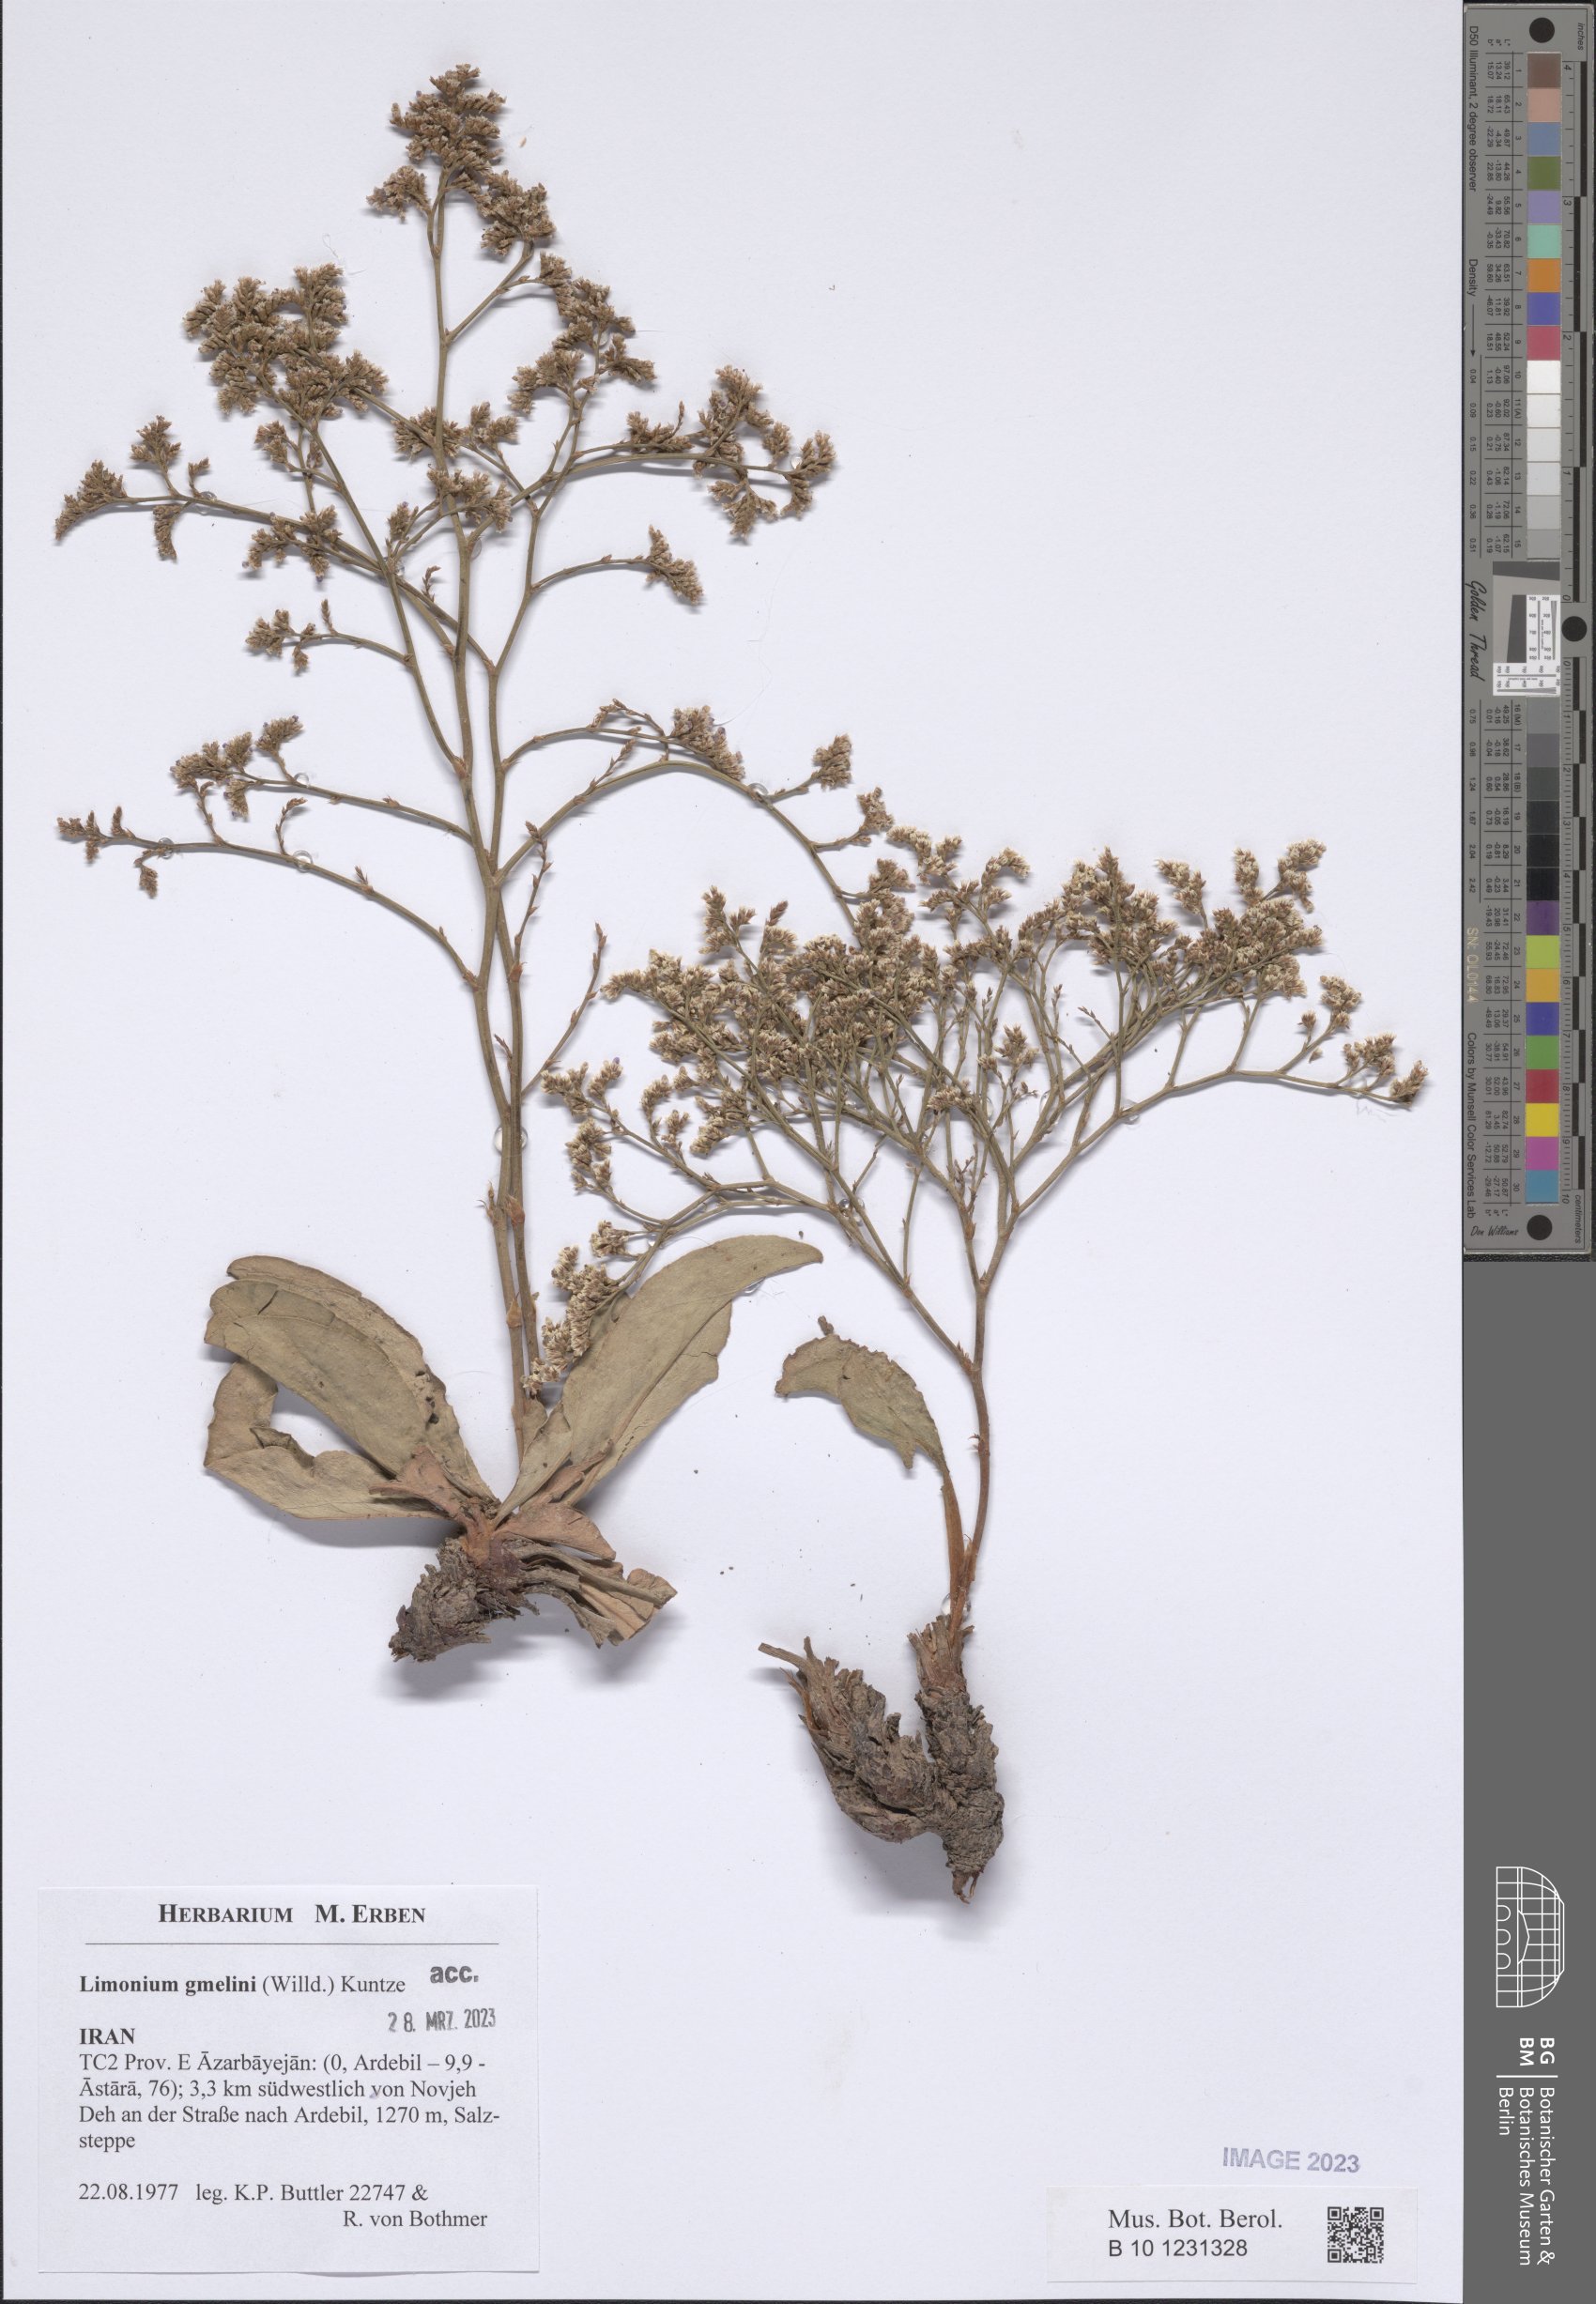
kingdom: Plantae
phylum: Tracheophyta
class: Magnoliopsida
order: Caryophyllales
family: Plumbaginaceae
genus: Limonium
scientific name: Limonium gmelini
